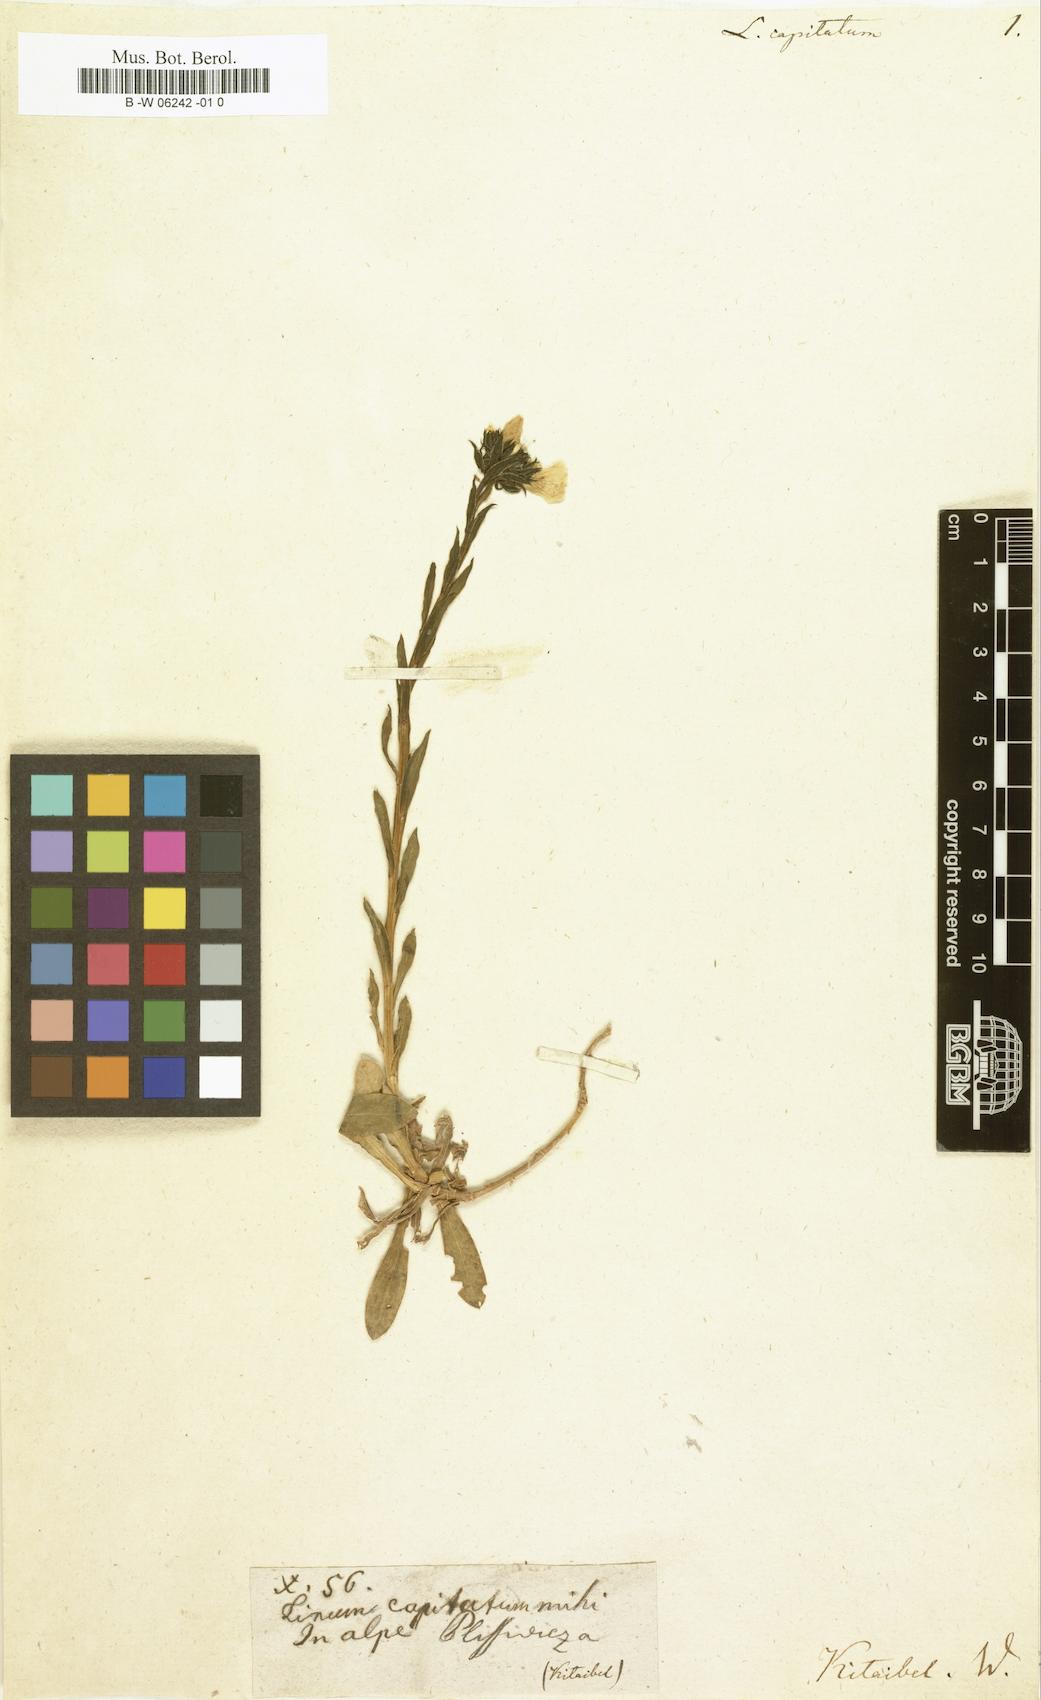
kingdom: Plantae
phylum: Tracheophyta
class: Magnoliopsida
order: Malpighiales
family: Linaceae
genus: Linum
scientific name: Linum capitatum
